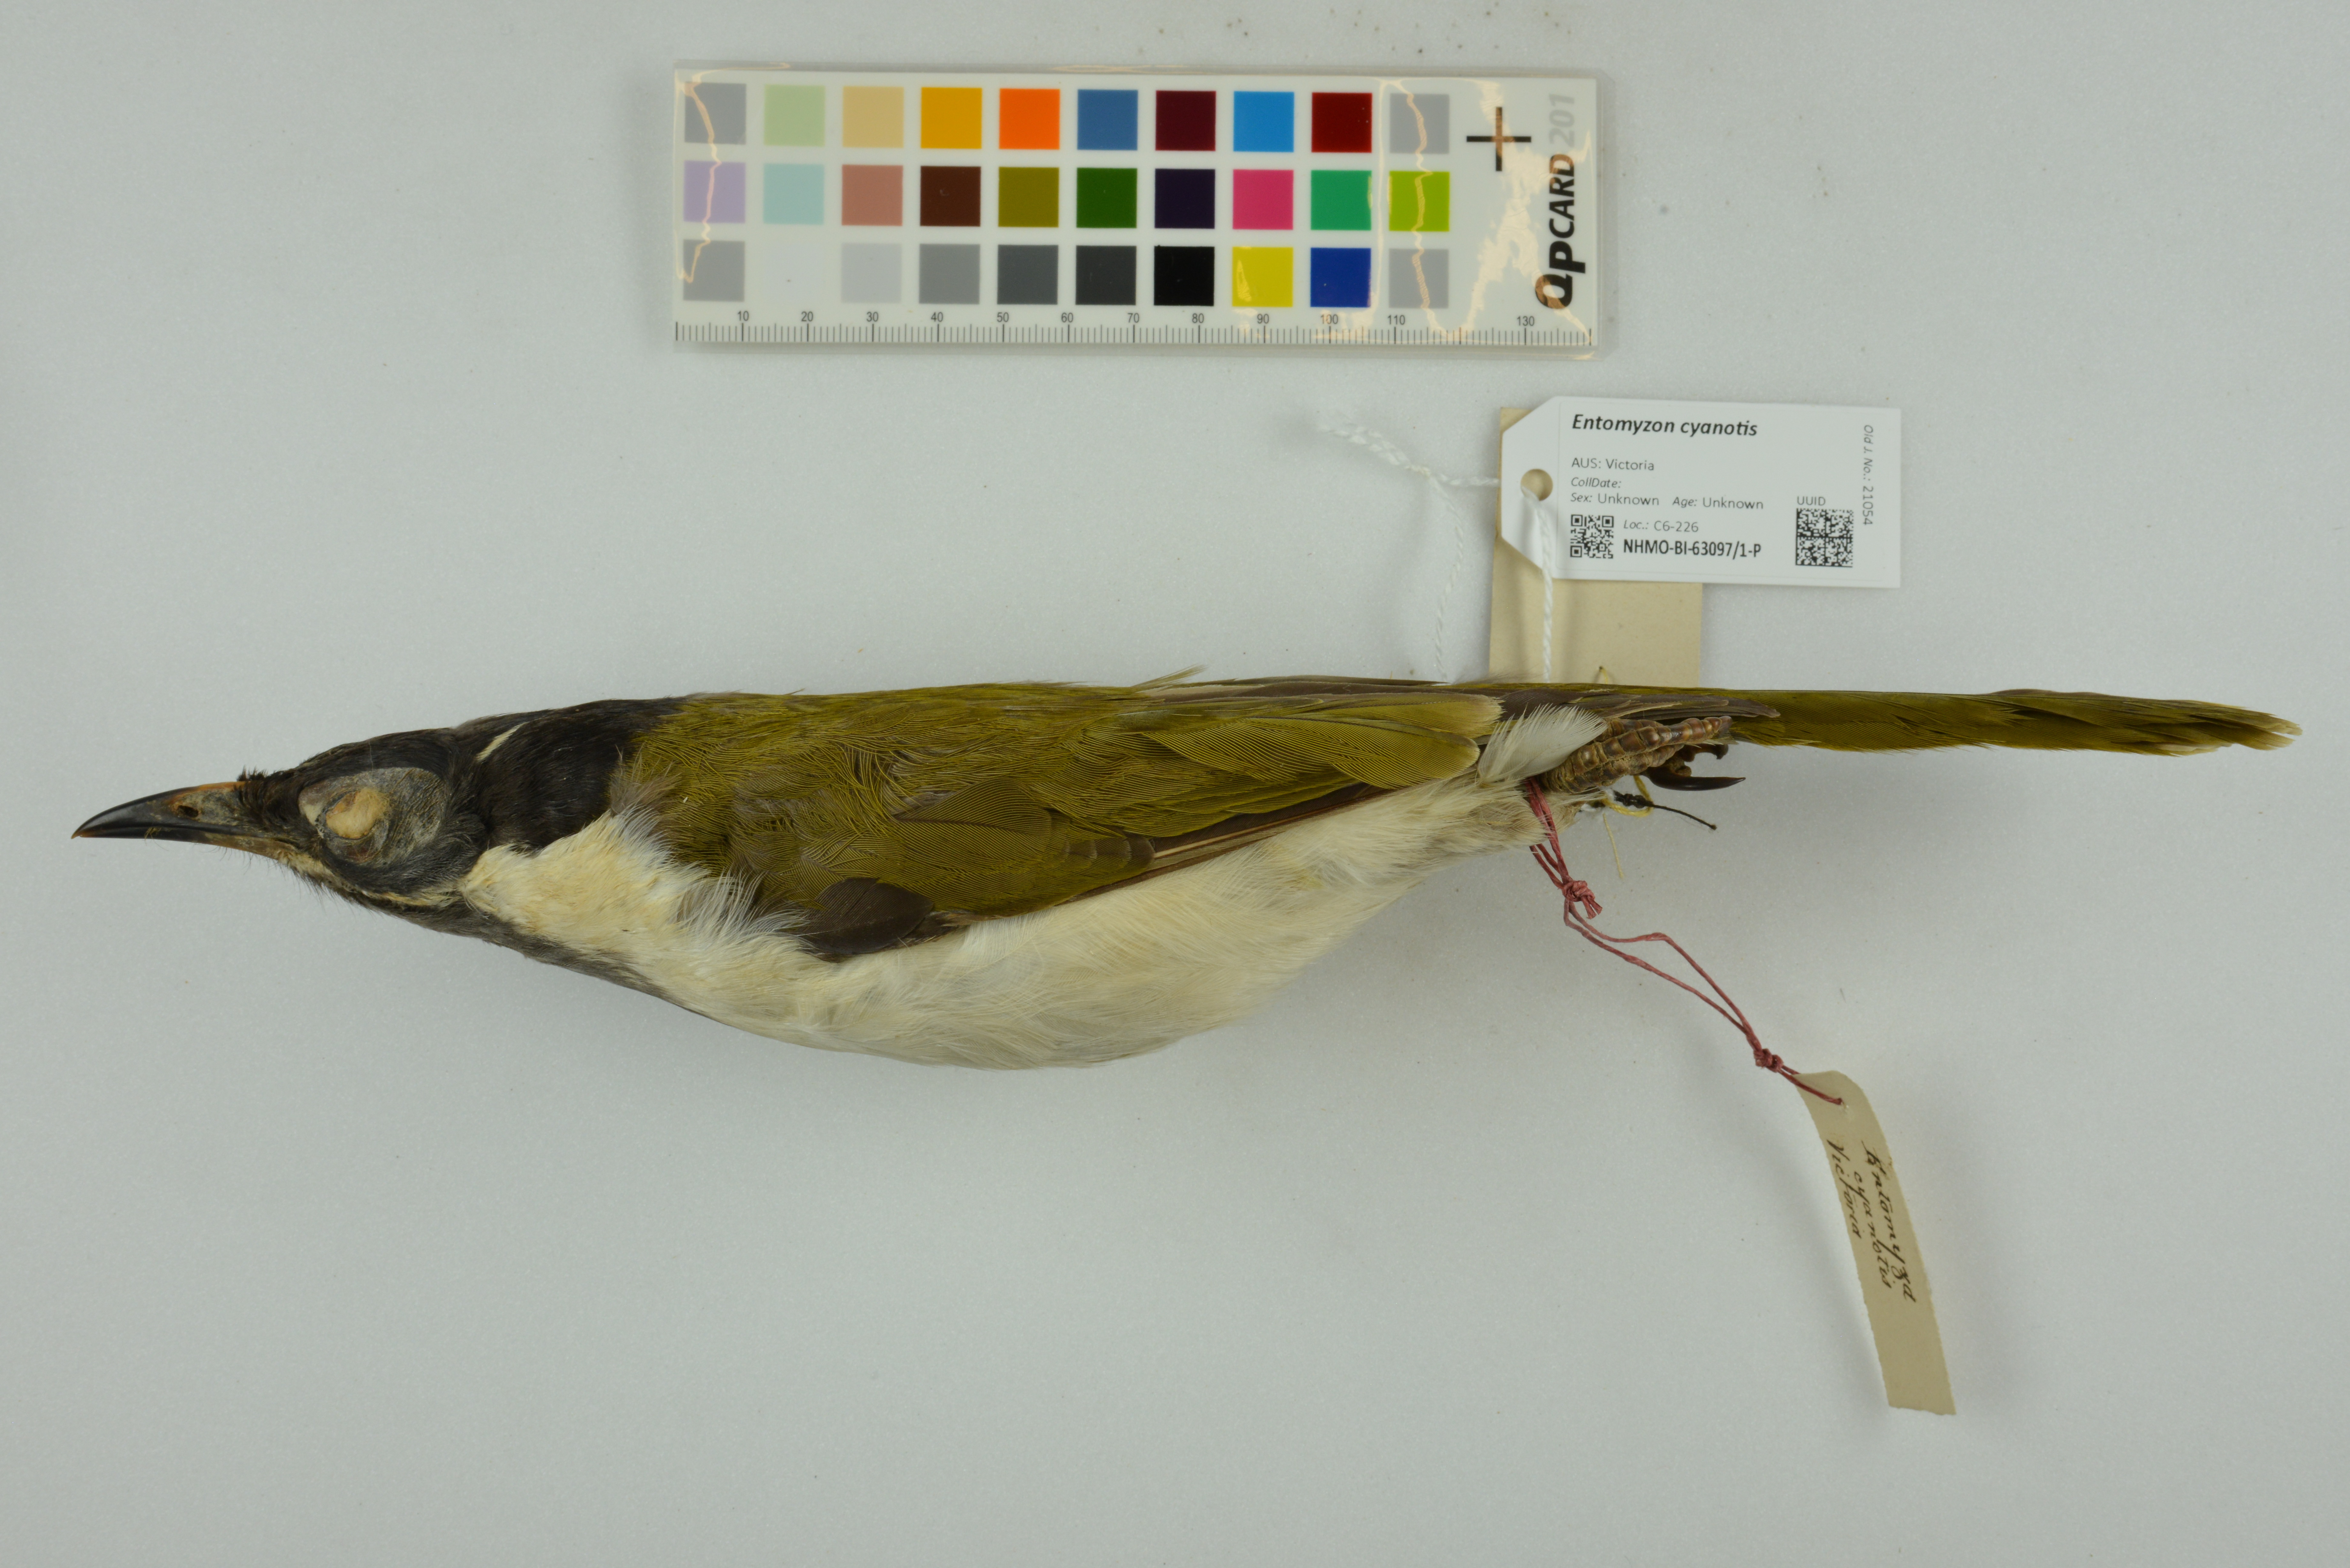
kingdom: Animalia
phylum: Chordata
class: Aves
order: Passeriformes
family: Meliphagidae
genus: Entomyzon
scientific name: Entomyzon cyanotis
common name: Blue-faced honeyeater
